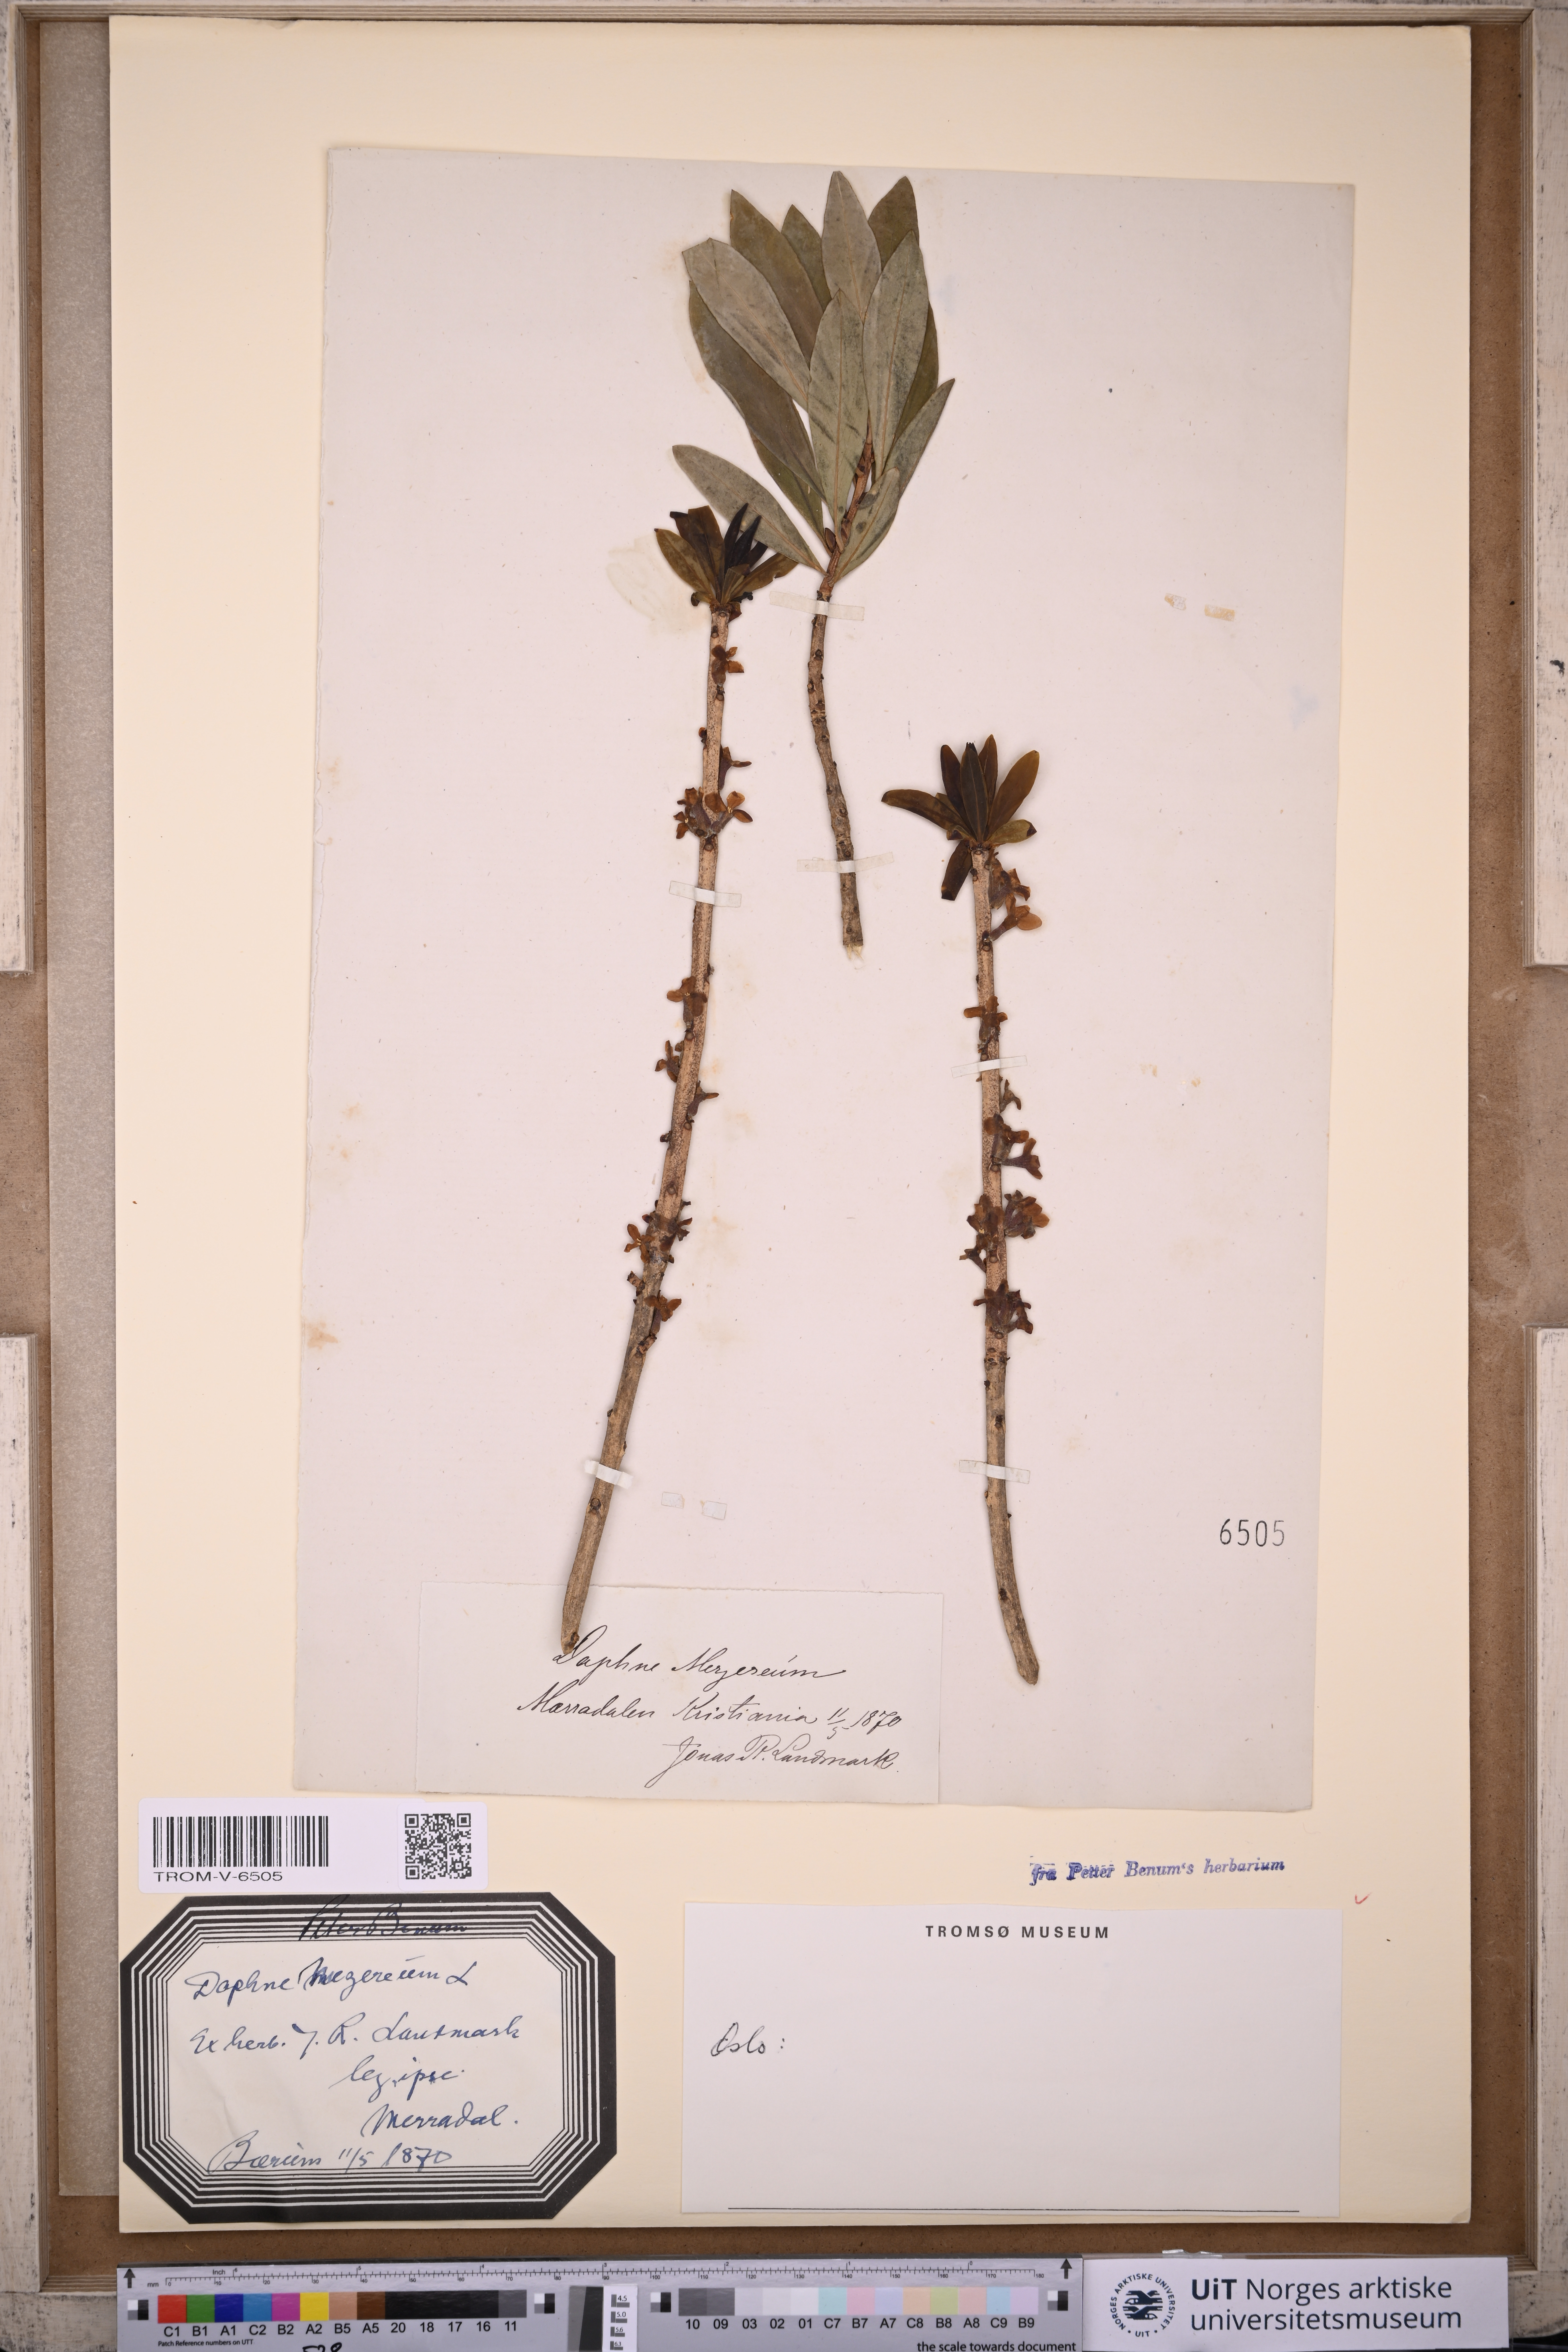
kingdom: Plantae
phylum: Tracheophyta
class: Magnoliopsida
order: Malvales
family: Thymelaeaceae
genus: Daphne
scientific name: Daphne mezereum
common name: Mezereon
